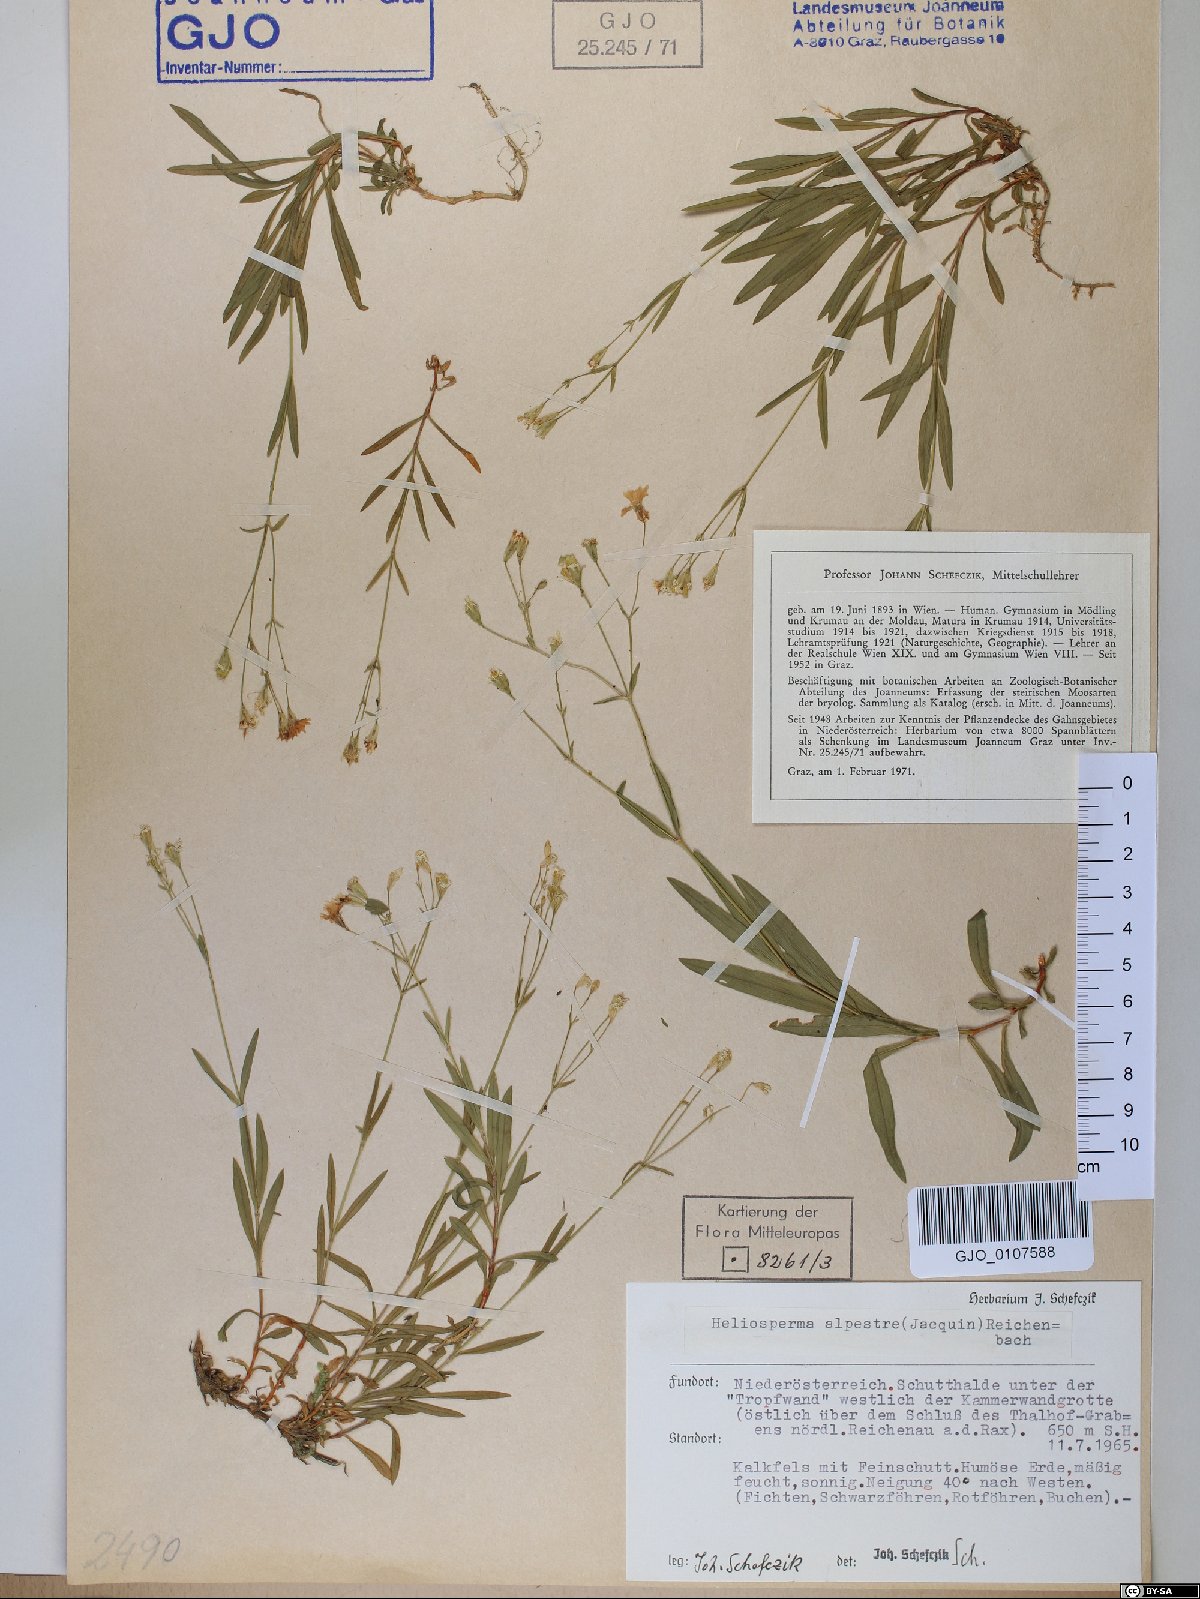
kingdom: Plantae
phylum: Tracheophyta
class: Magnoliopsida
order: Caryophyllales
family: Caryophyllaceae
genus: Heliosperma
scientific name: Heliosperma alpestre
